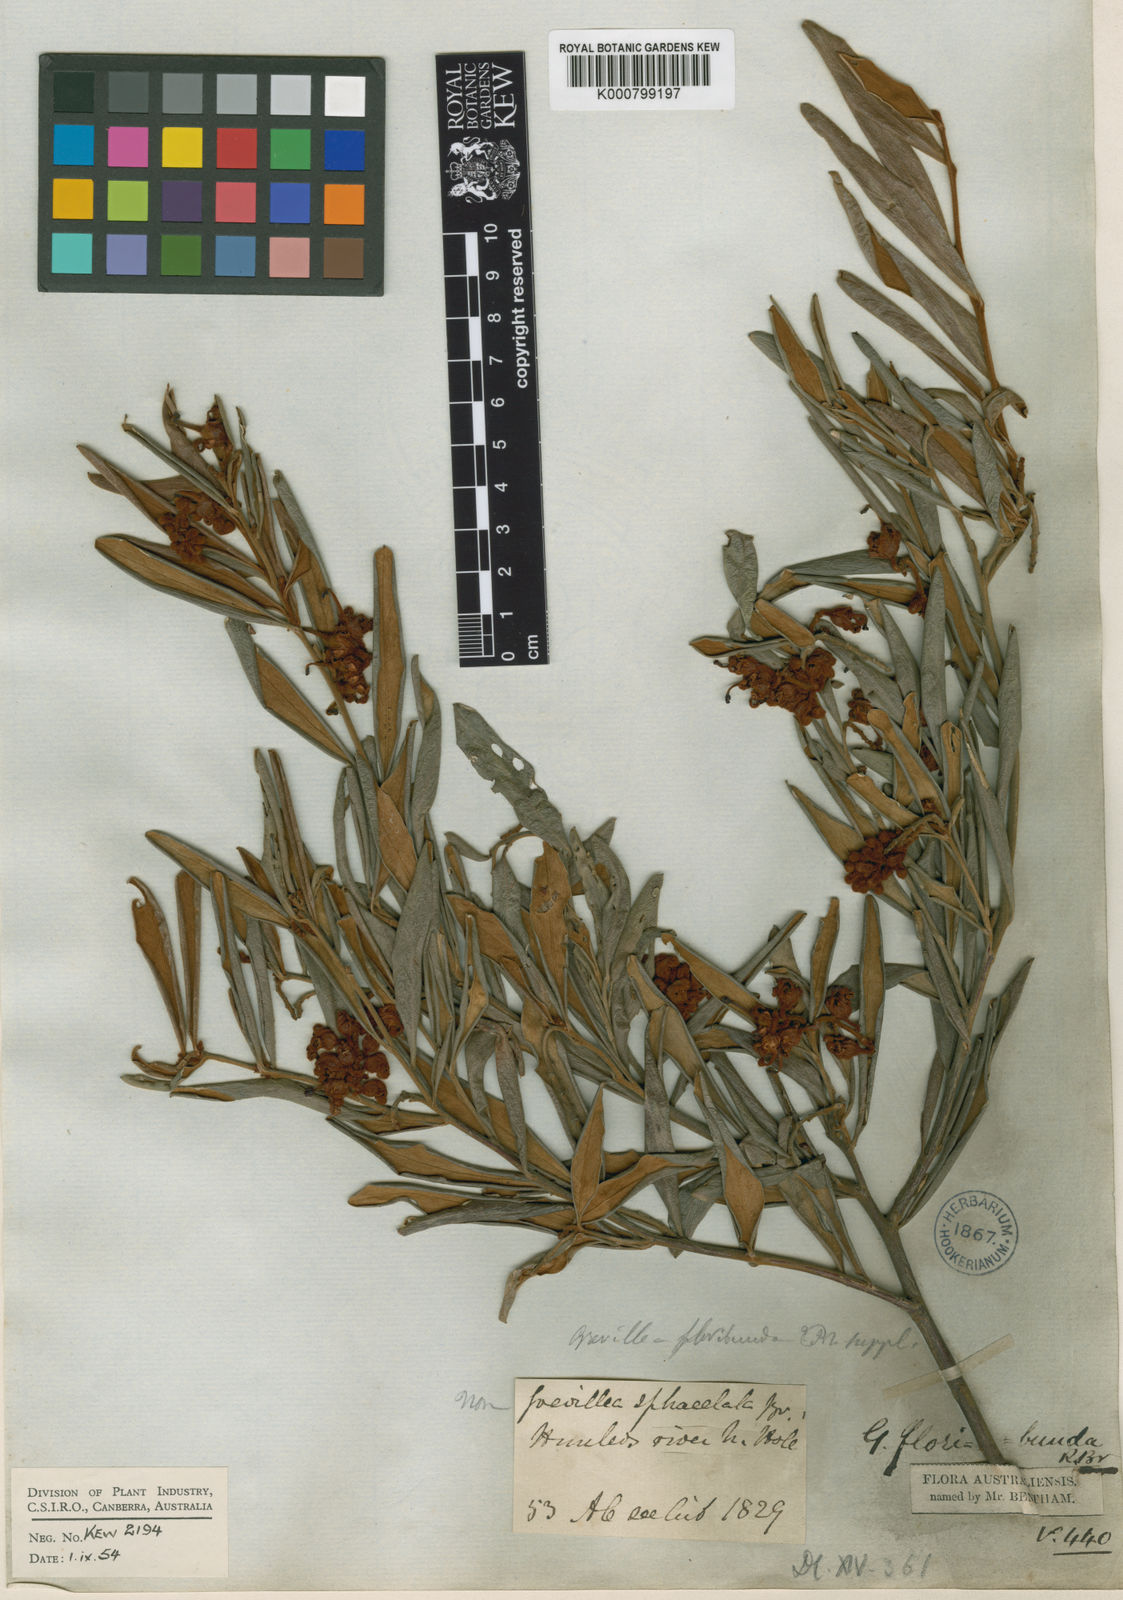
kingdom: Plantae
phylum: Tracheophyta
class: Magnoliopsida
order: Proteales
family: Proteaceae
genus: Grevillea
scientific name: Grevillea floribunda
